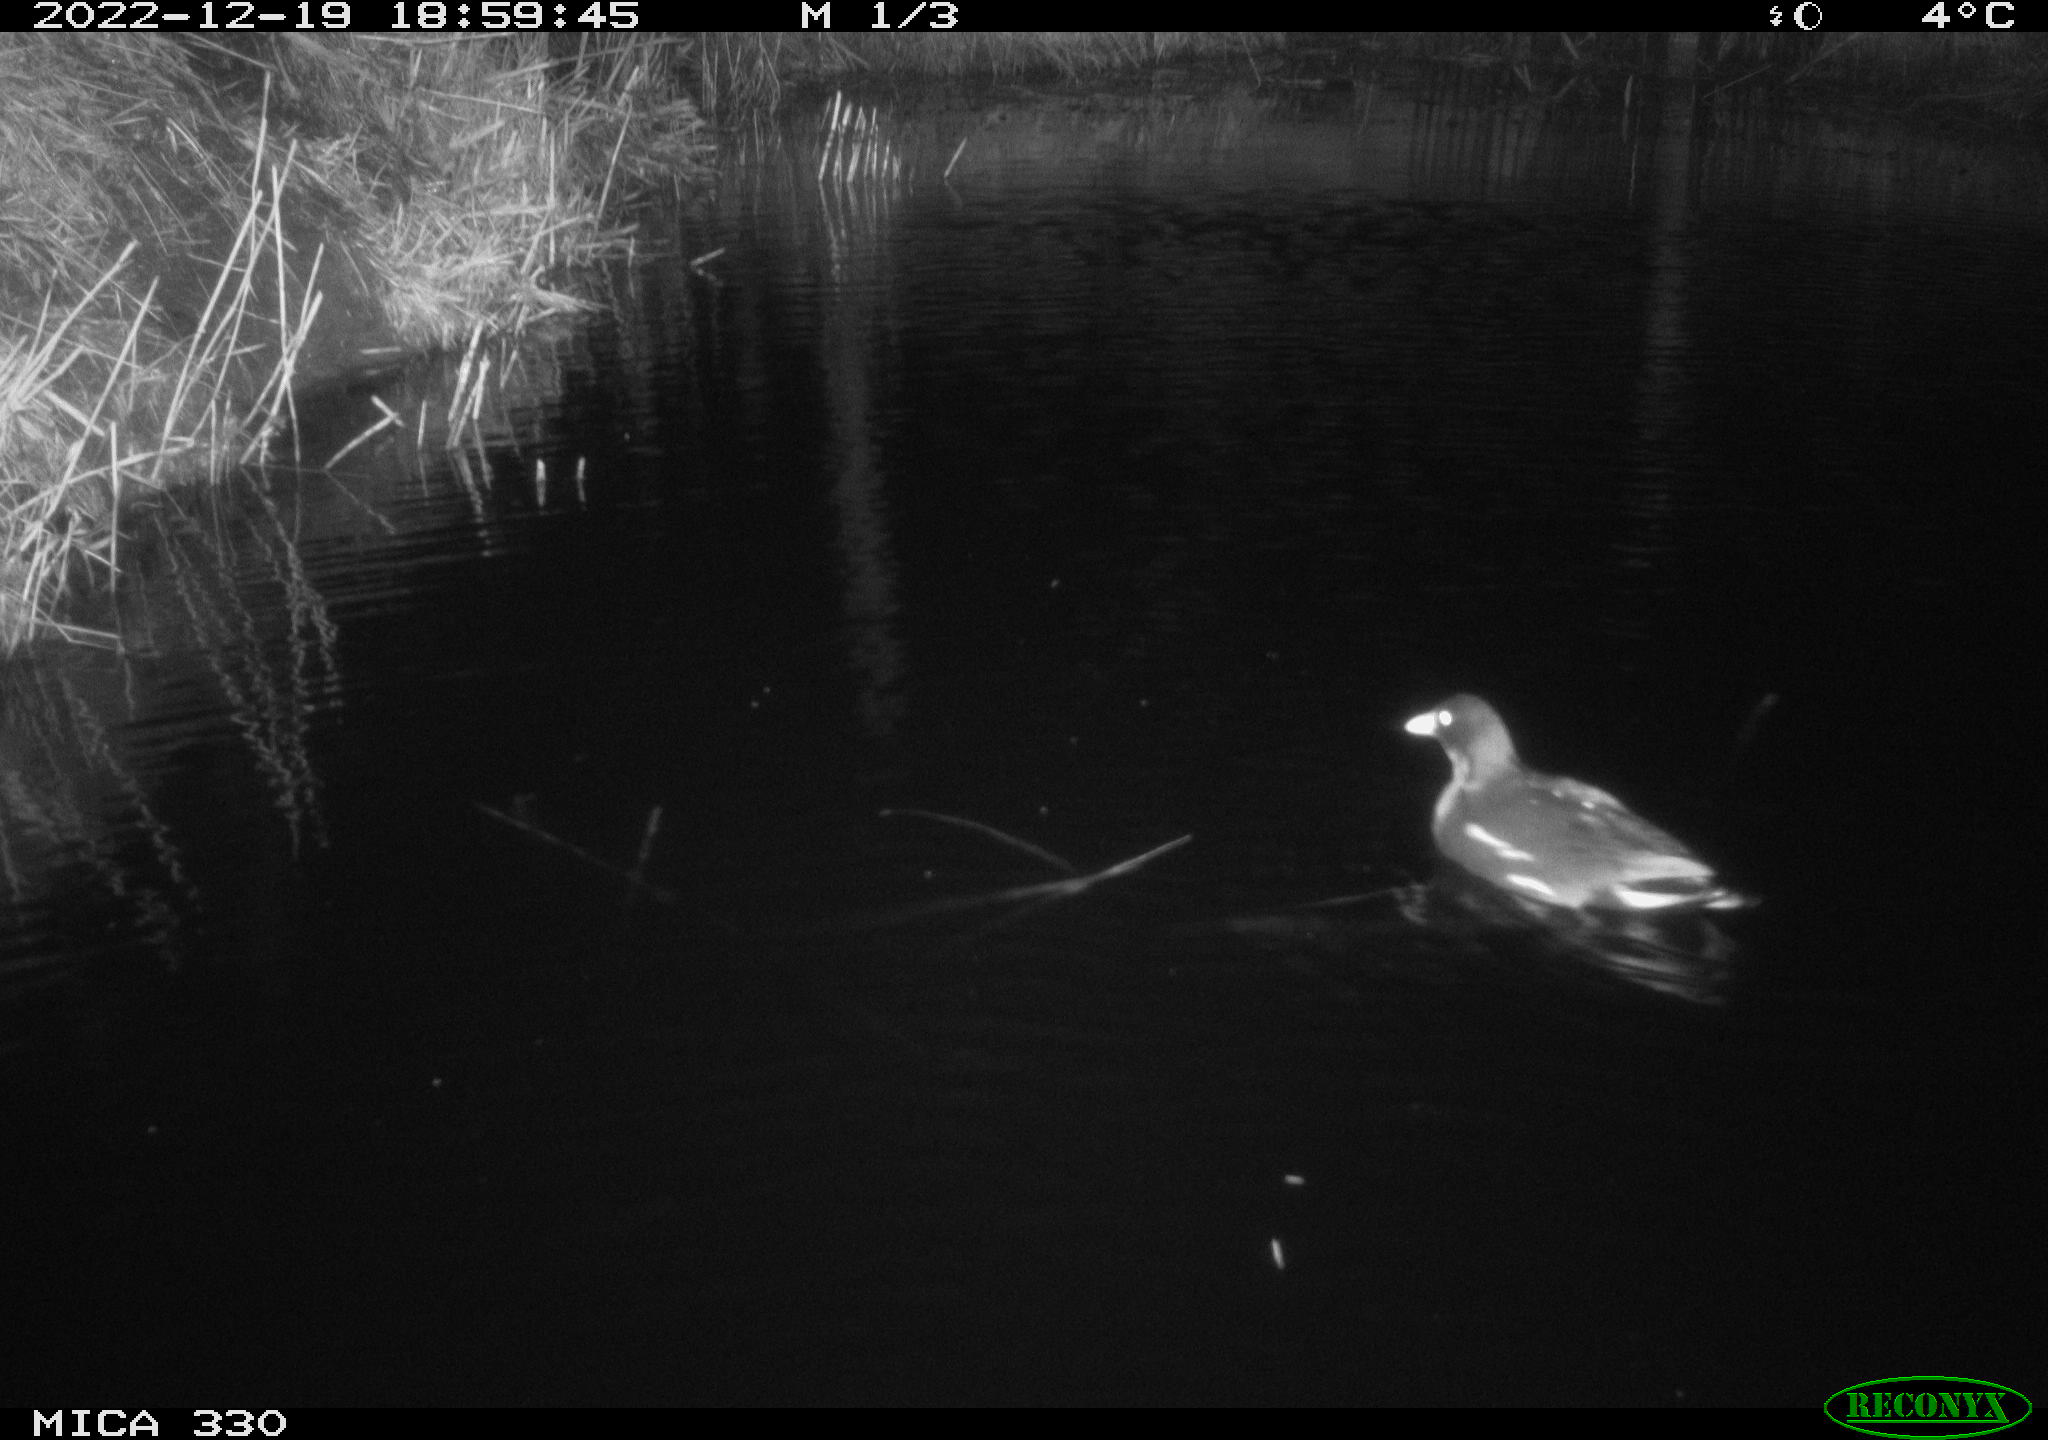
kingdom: Animalia
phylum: Chordata
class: Aves
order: Gruiformes
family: Rallidae
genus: Gallinula
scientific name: Gallinula chloropus
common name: Common moorhen
